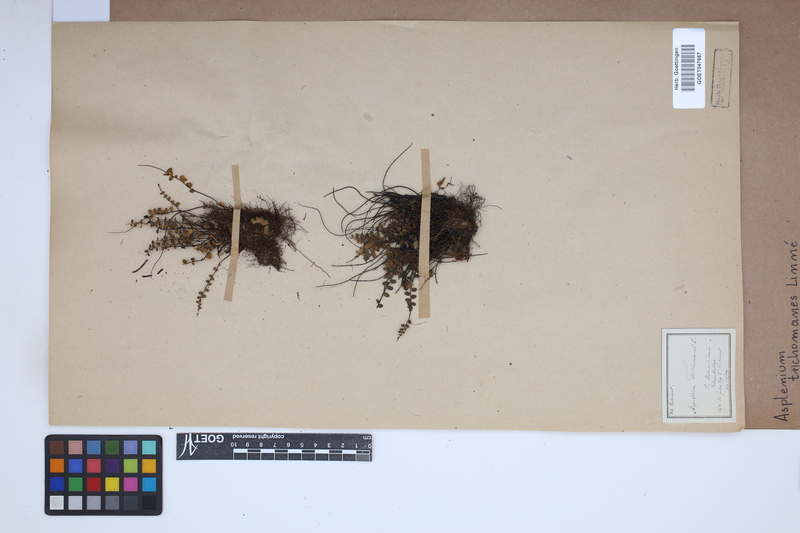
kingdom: Plantae
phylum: Tracheophyta
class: Polypodiopsida
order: Polypodiales
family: Aspleniaceae
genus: Asplenium
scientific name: Asplenium trichomanes
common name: Maidenhair spleenwort
